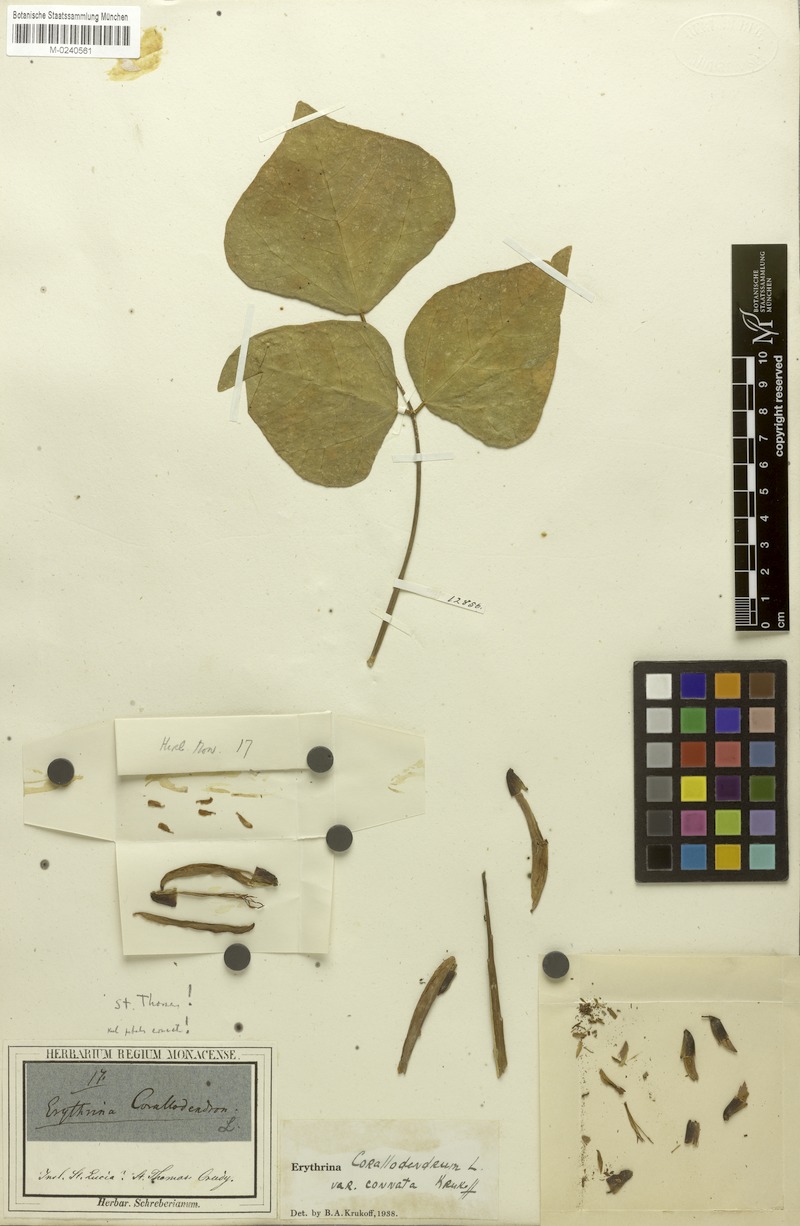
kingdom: Plantae
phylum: Tracheophyta
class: Magnoliopsida
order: Fabales
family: Fabaceae
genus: Erythrina
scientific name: Erythrina corallodendron
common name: Coraltree
